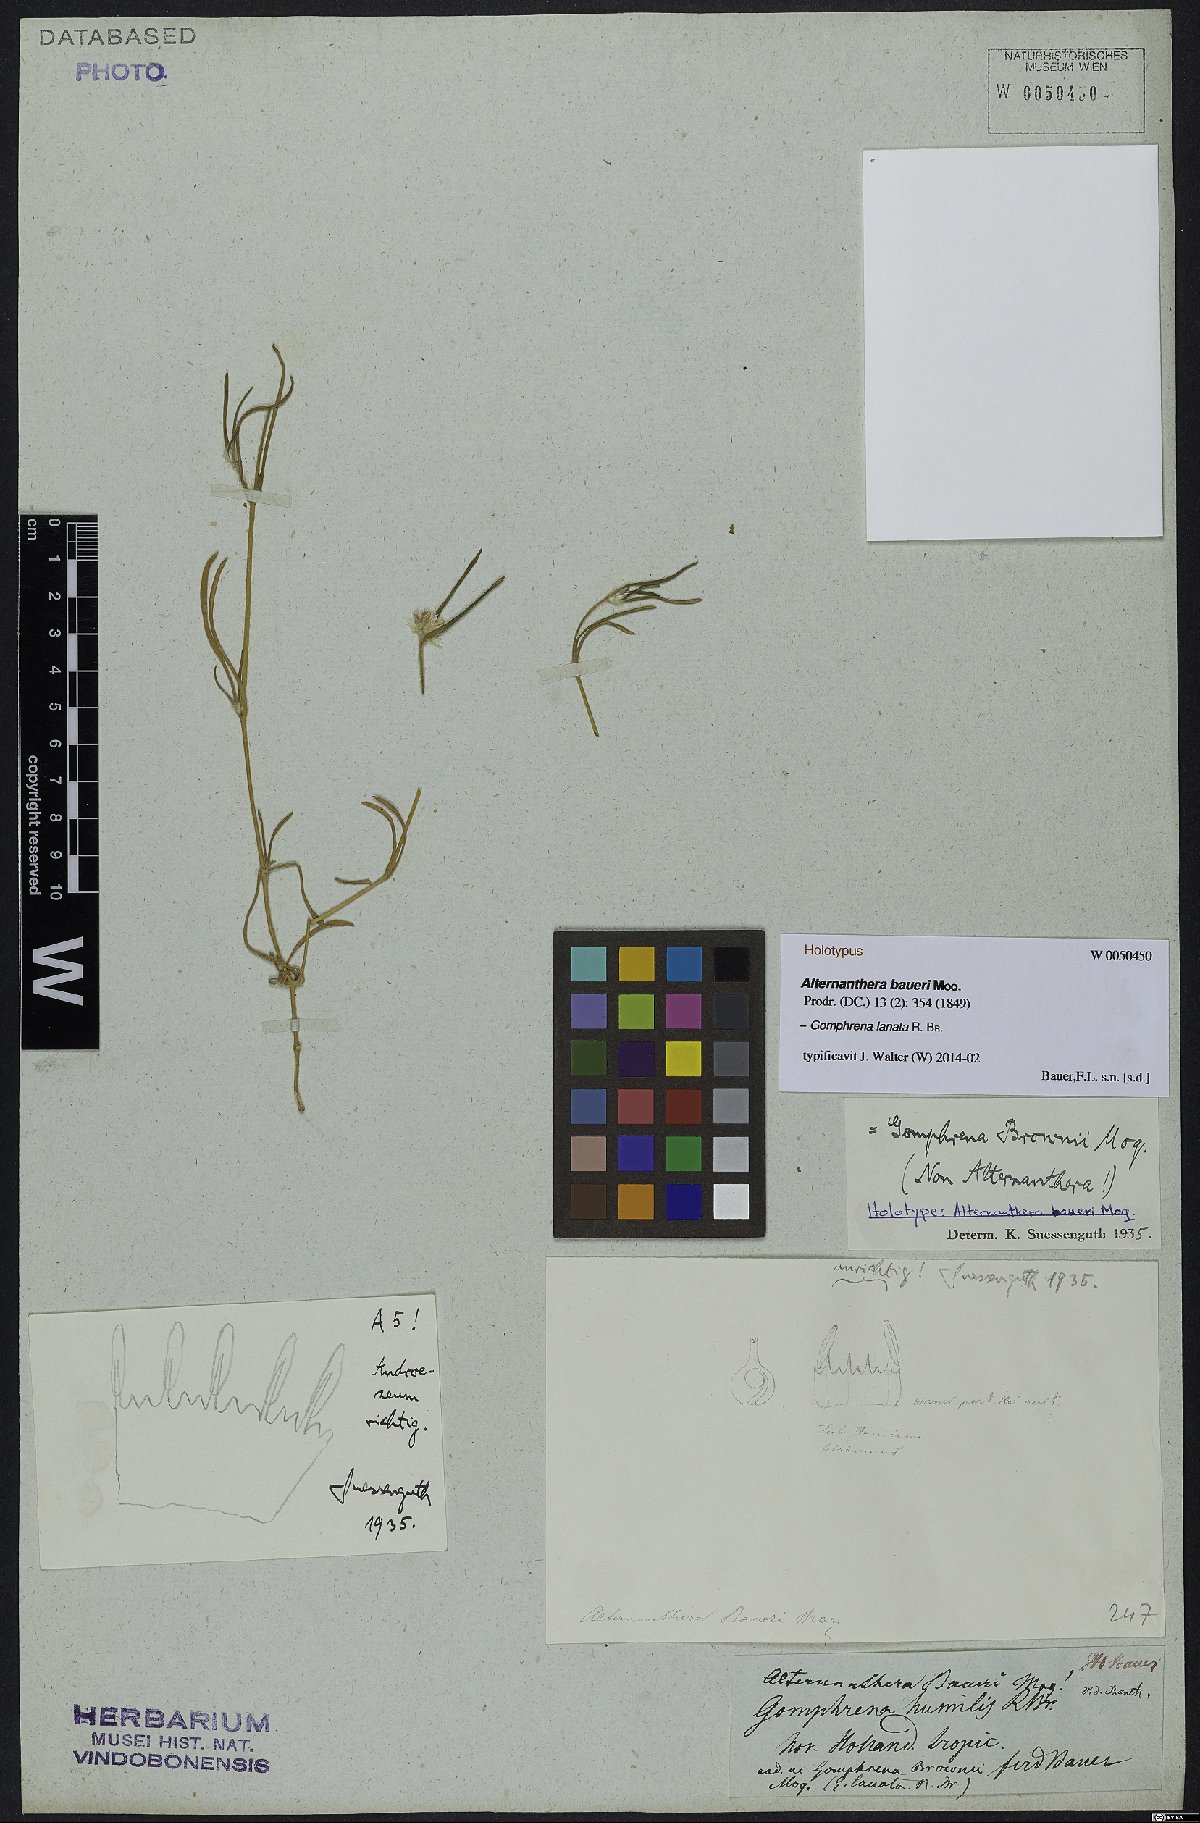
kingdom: Plantae
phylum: Tracheophyta
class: Magnoliopsida
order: Caryophyllales
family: Amaranthaceae
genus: Gomphrena
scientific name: Gomphrena lanata
